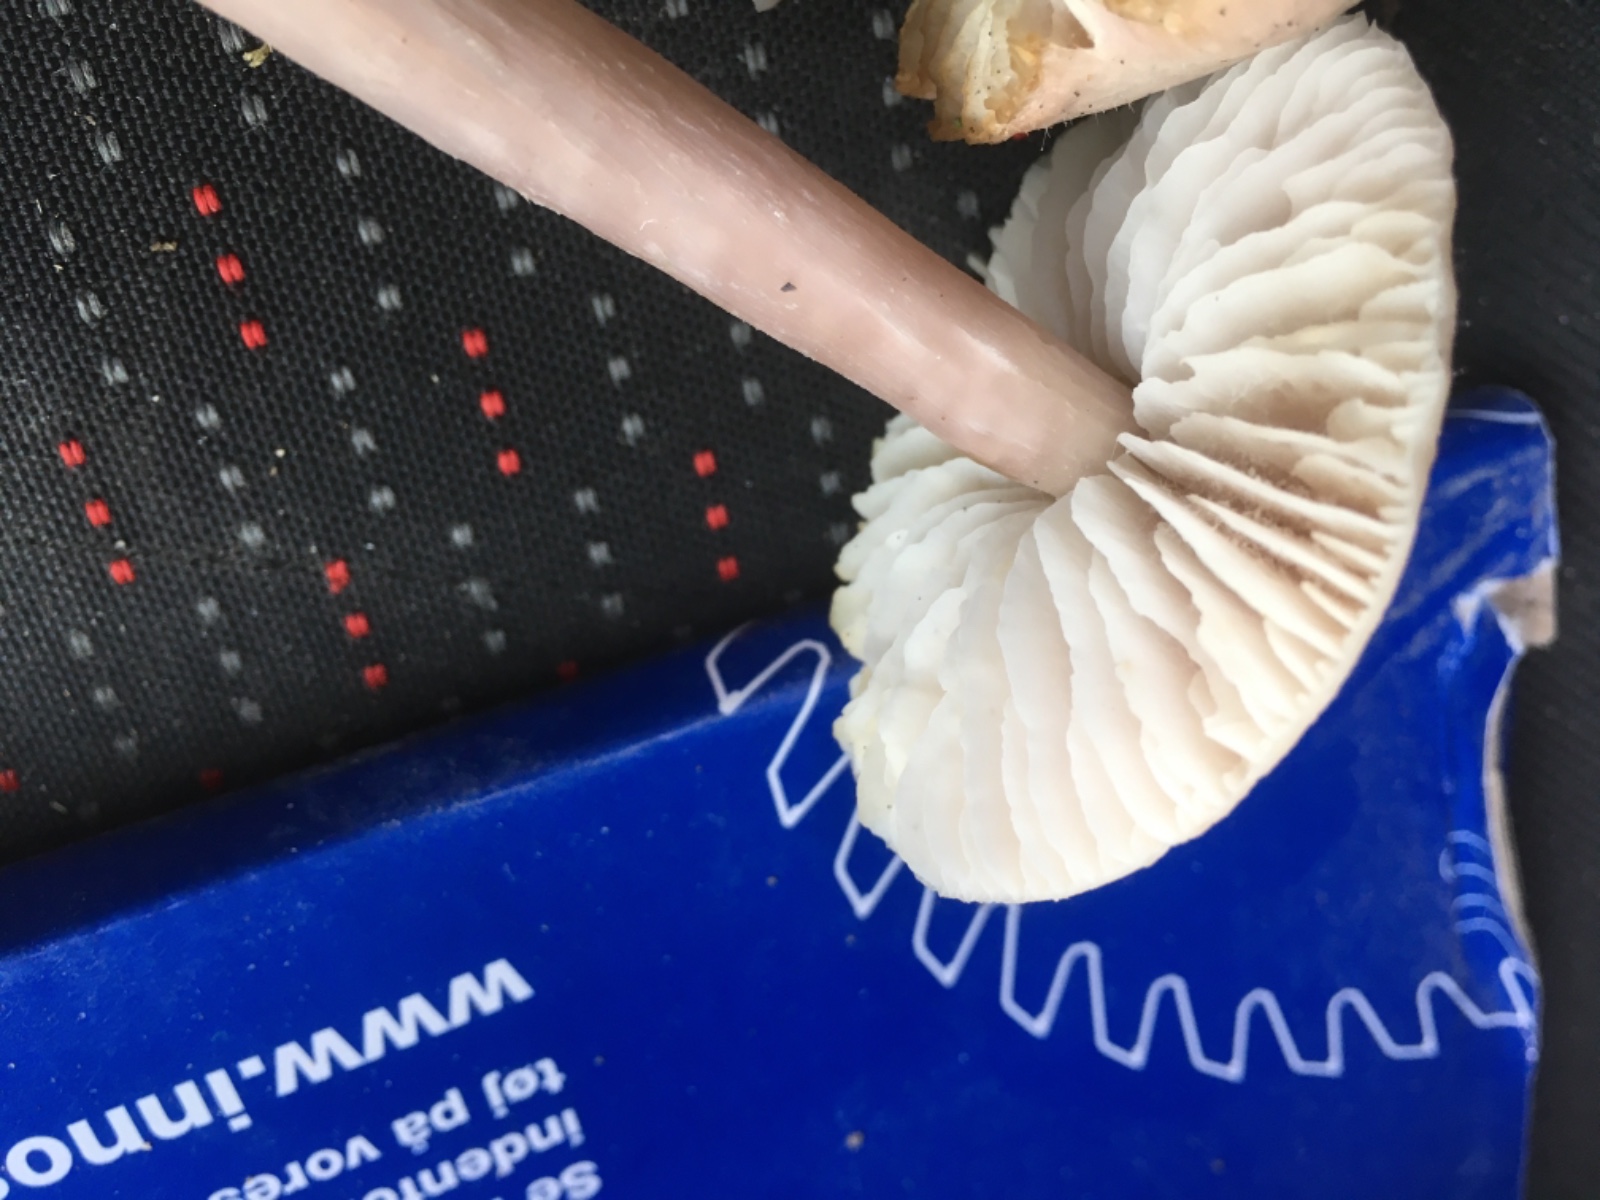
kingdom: Fungi
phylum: Basidiomycota
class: Agaricomycetes
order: Agaricales
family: Mycenaceae
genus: Mycena
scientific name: Mycena rosea
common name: rosa huesvamp
